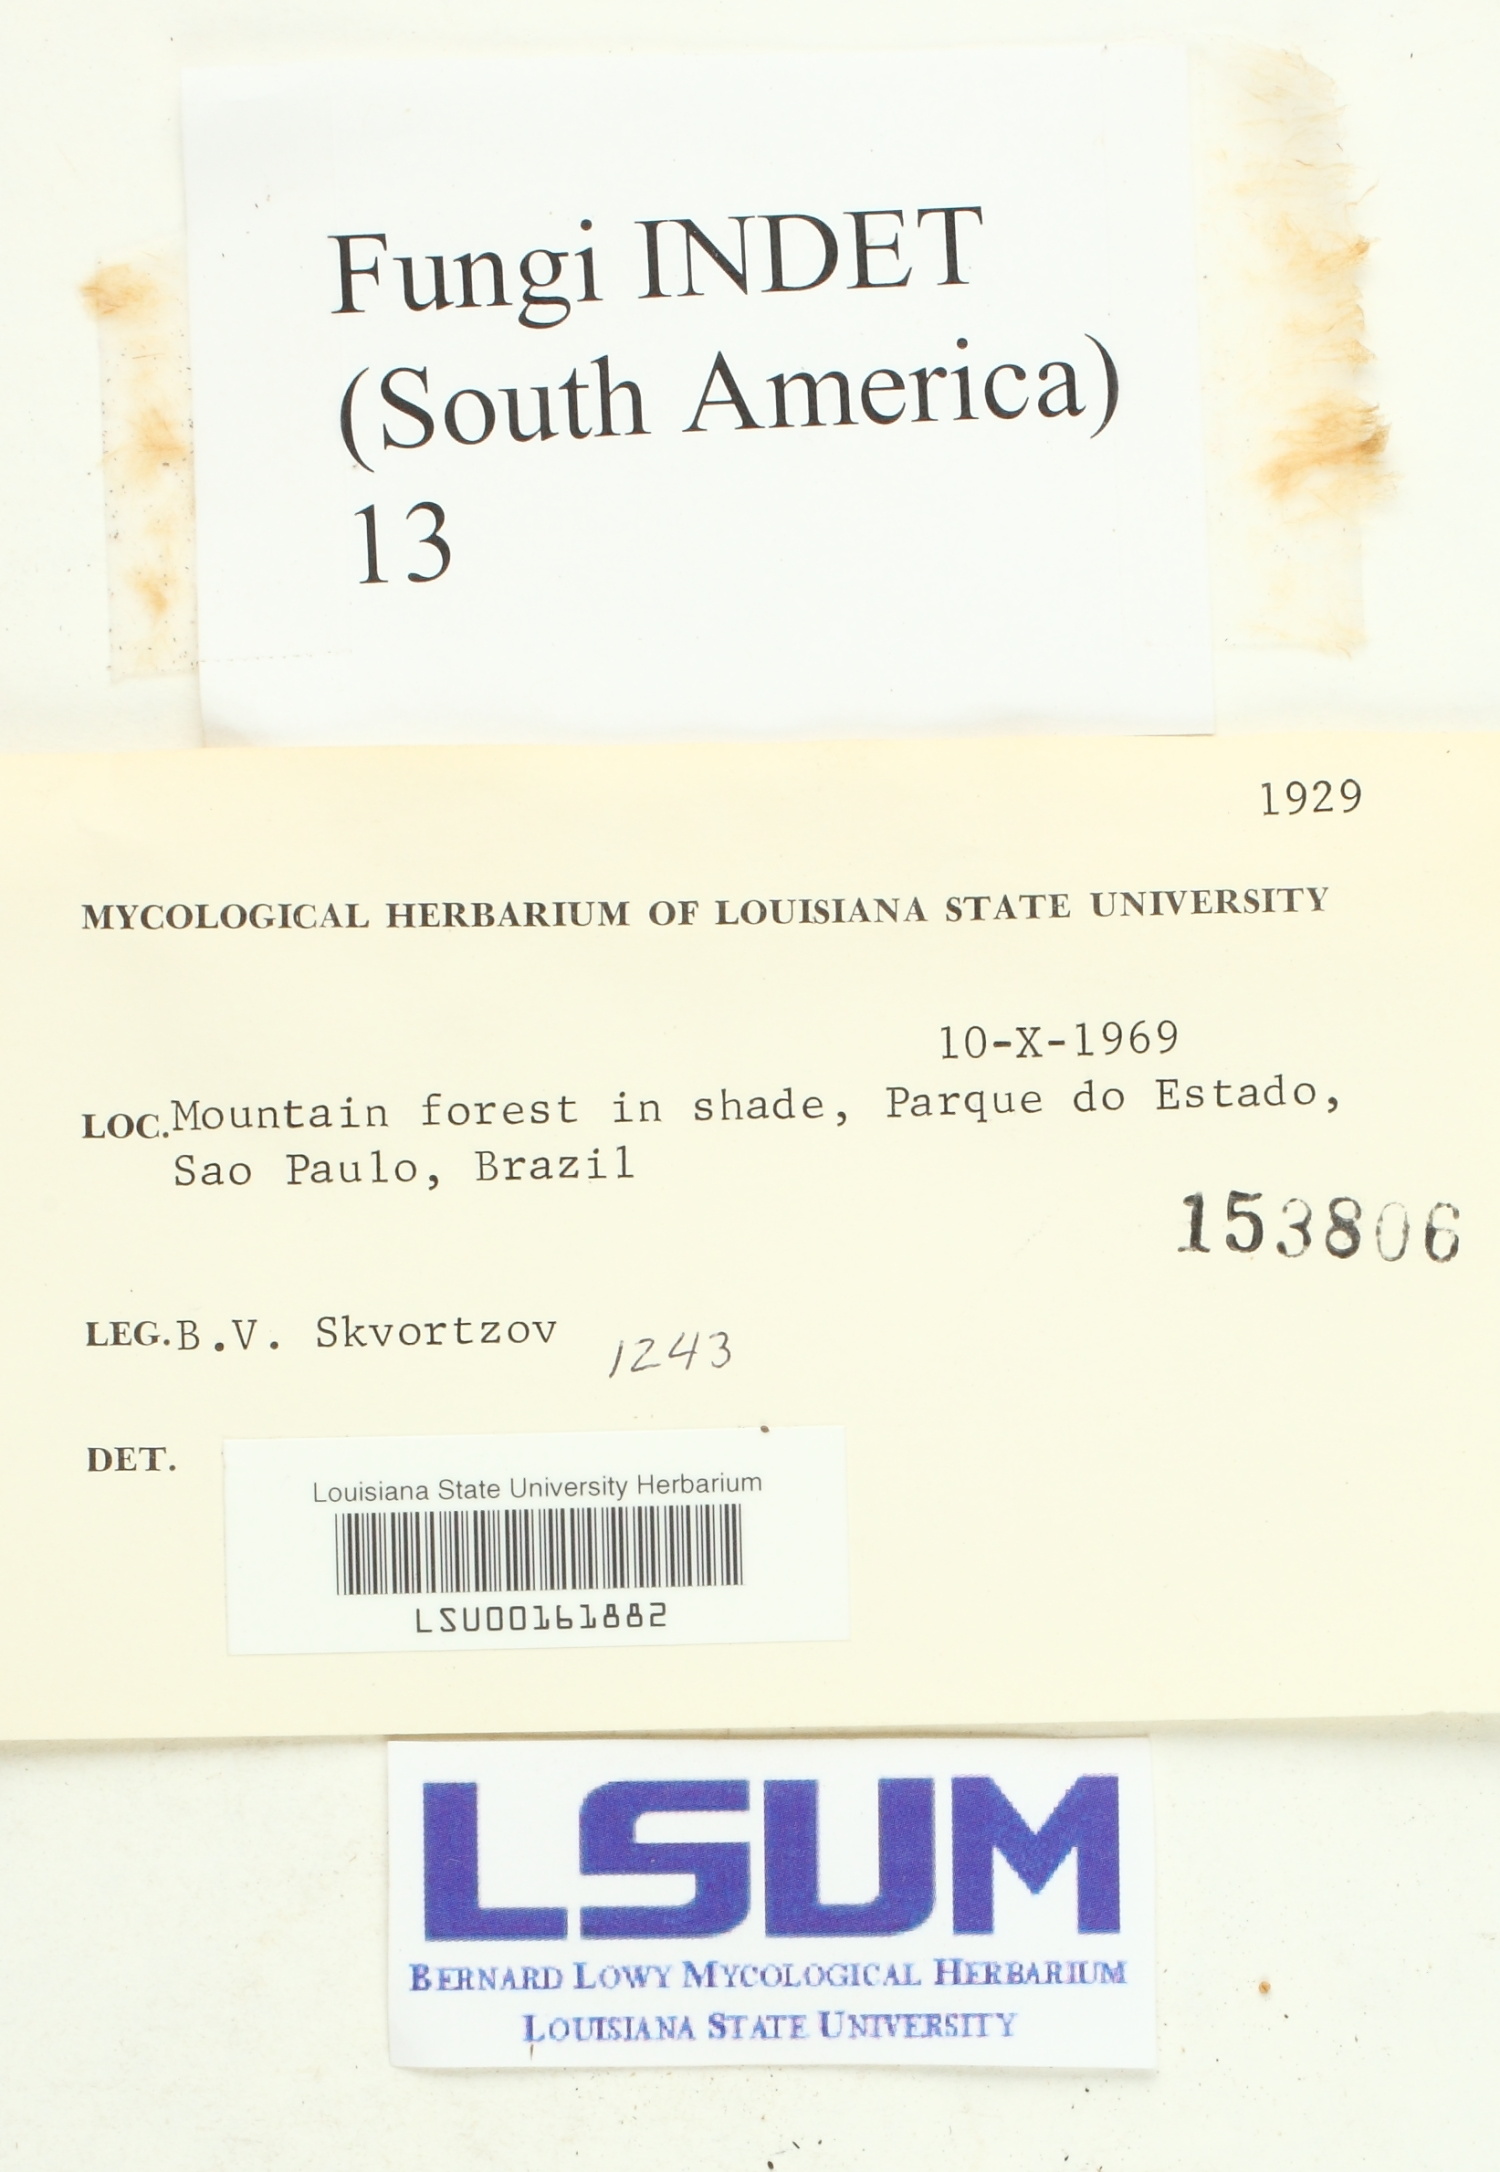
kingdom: Fungi
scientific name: Fungi
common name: Fungi
